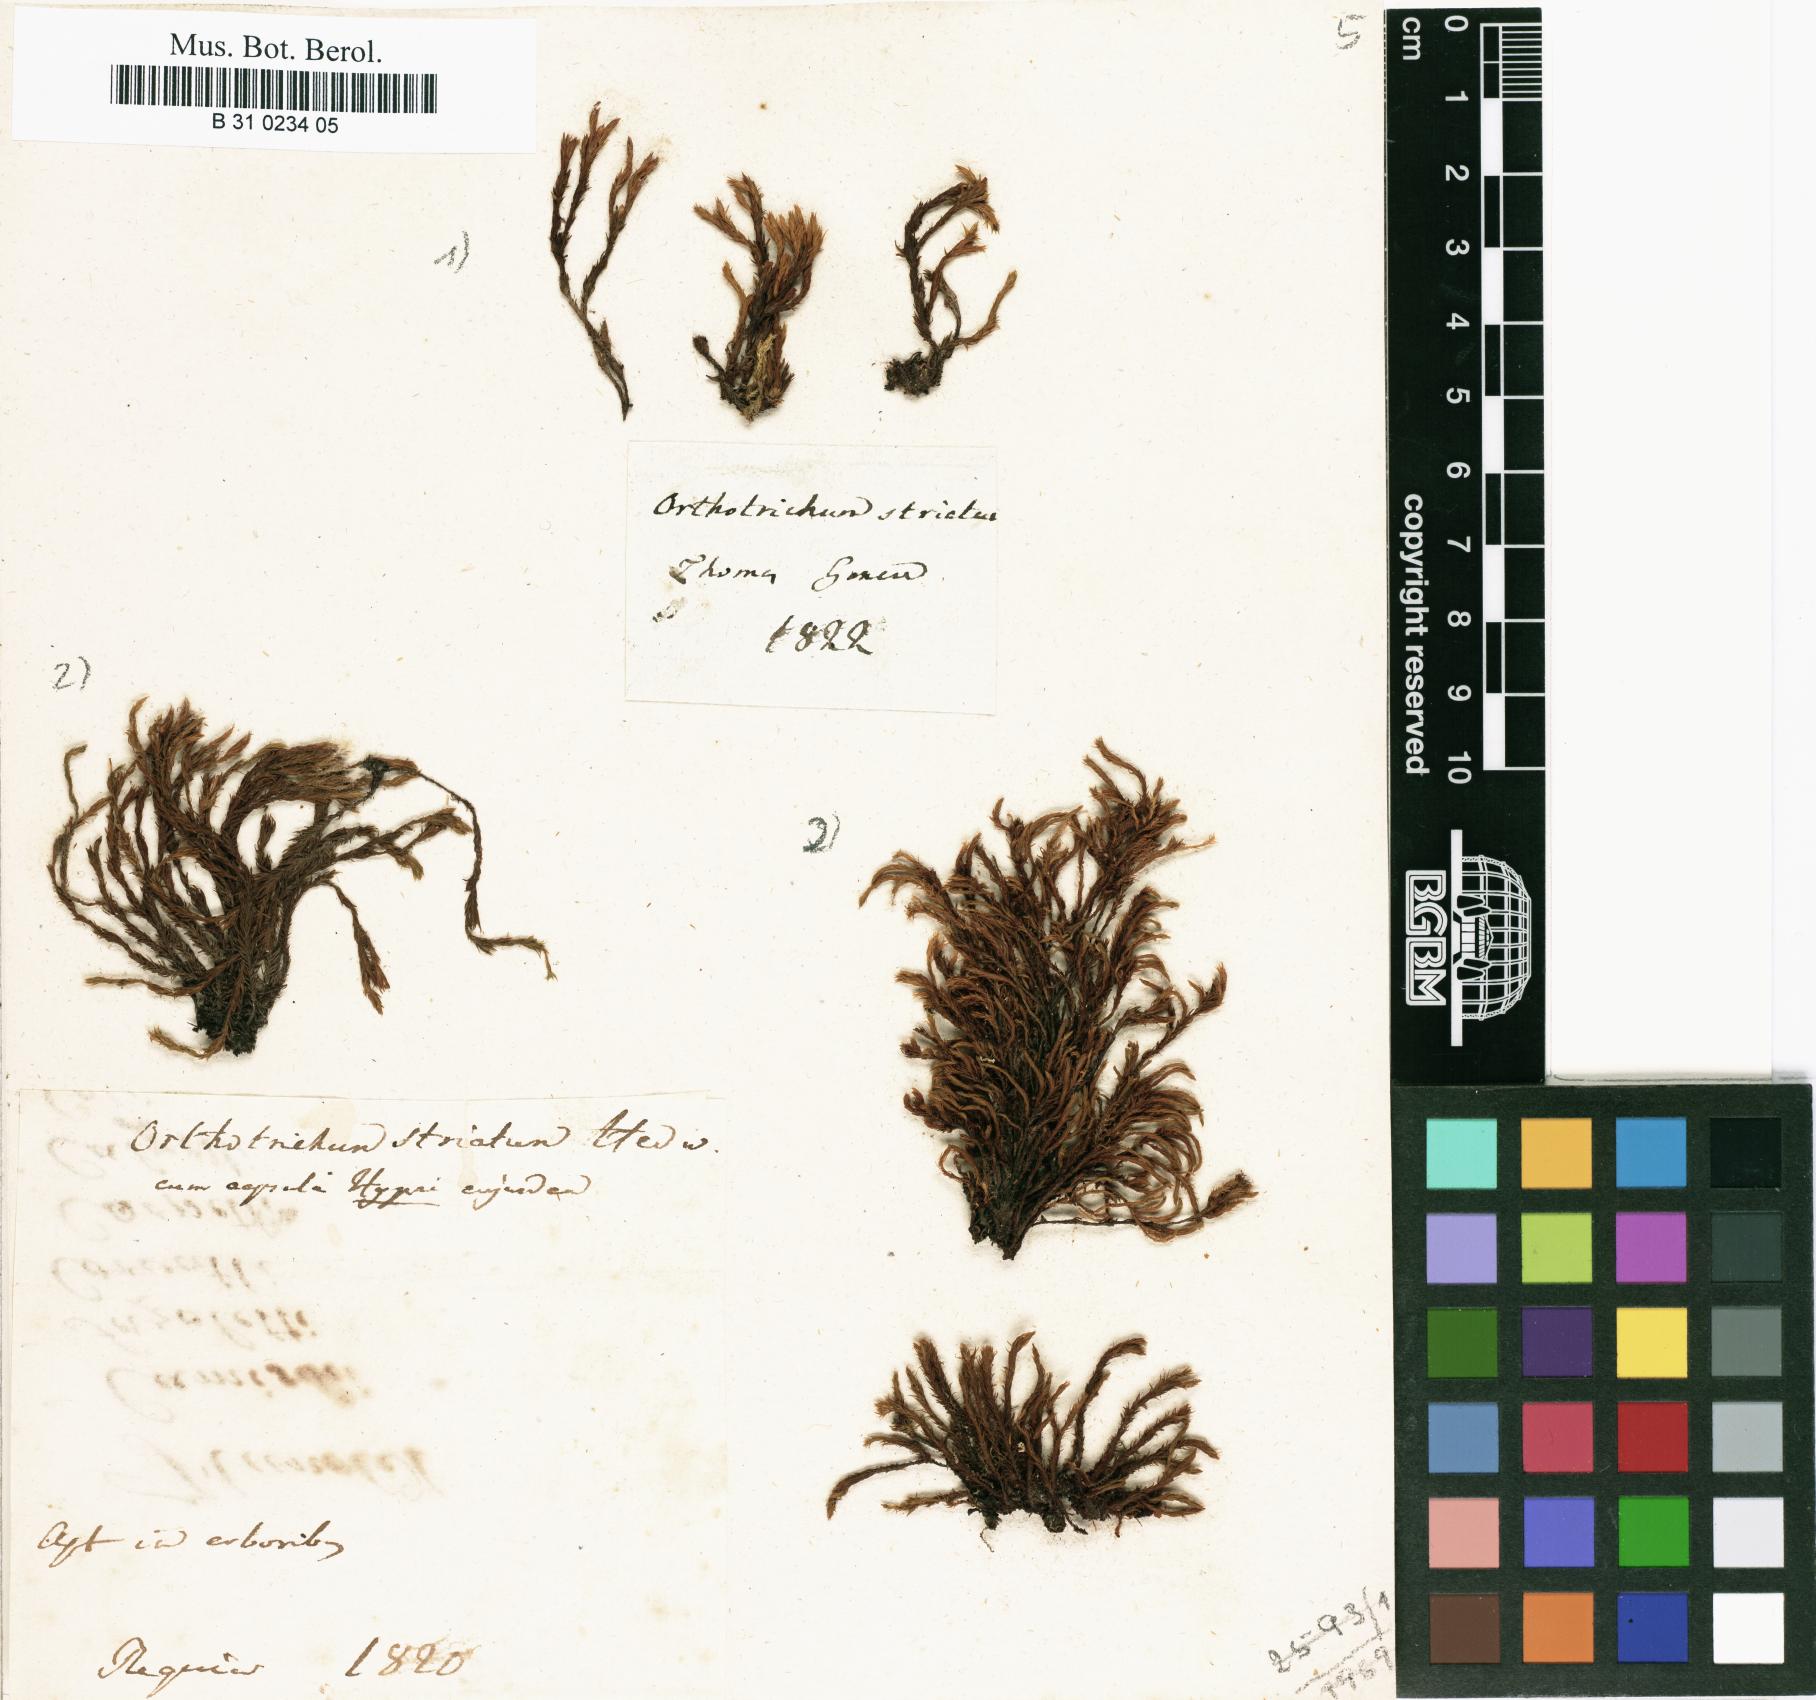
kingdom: Plantae
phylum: Bryophyta
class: Bryopsida
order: Orthotrichales
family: Orthotrichaceae
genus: Lewinskya
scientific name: Lewinskya striata
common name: Shaw's bristle-moss
